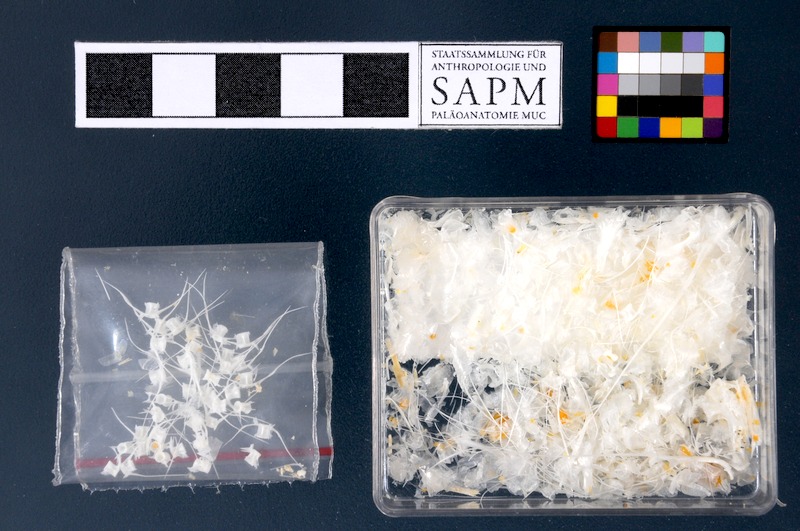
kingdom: Animalia
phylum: Chordata
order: Clupeiformes
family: Engraulidae
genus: Thryssa
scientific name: Thryssa setirostris
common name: Longjaw thryssa
